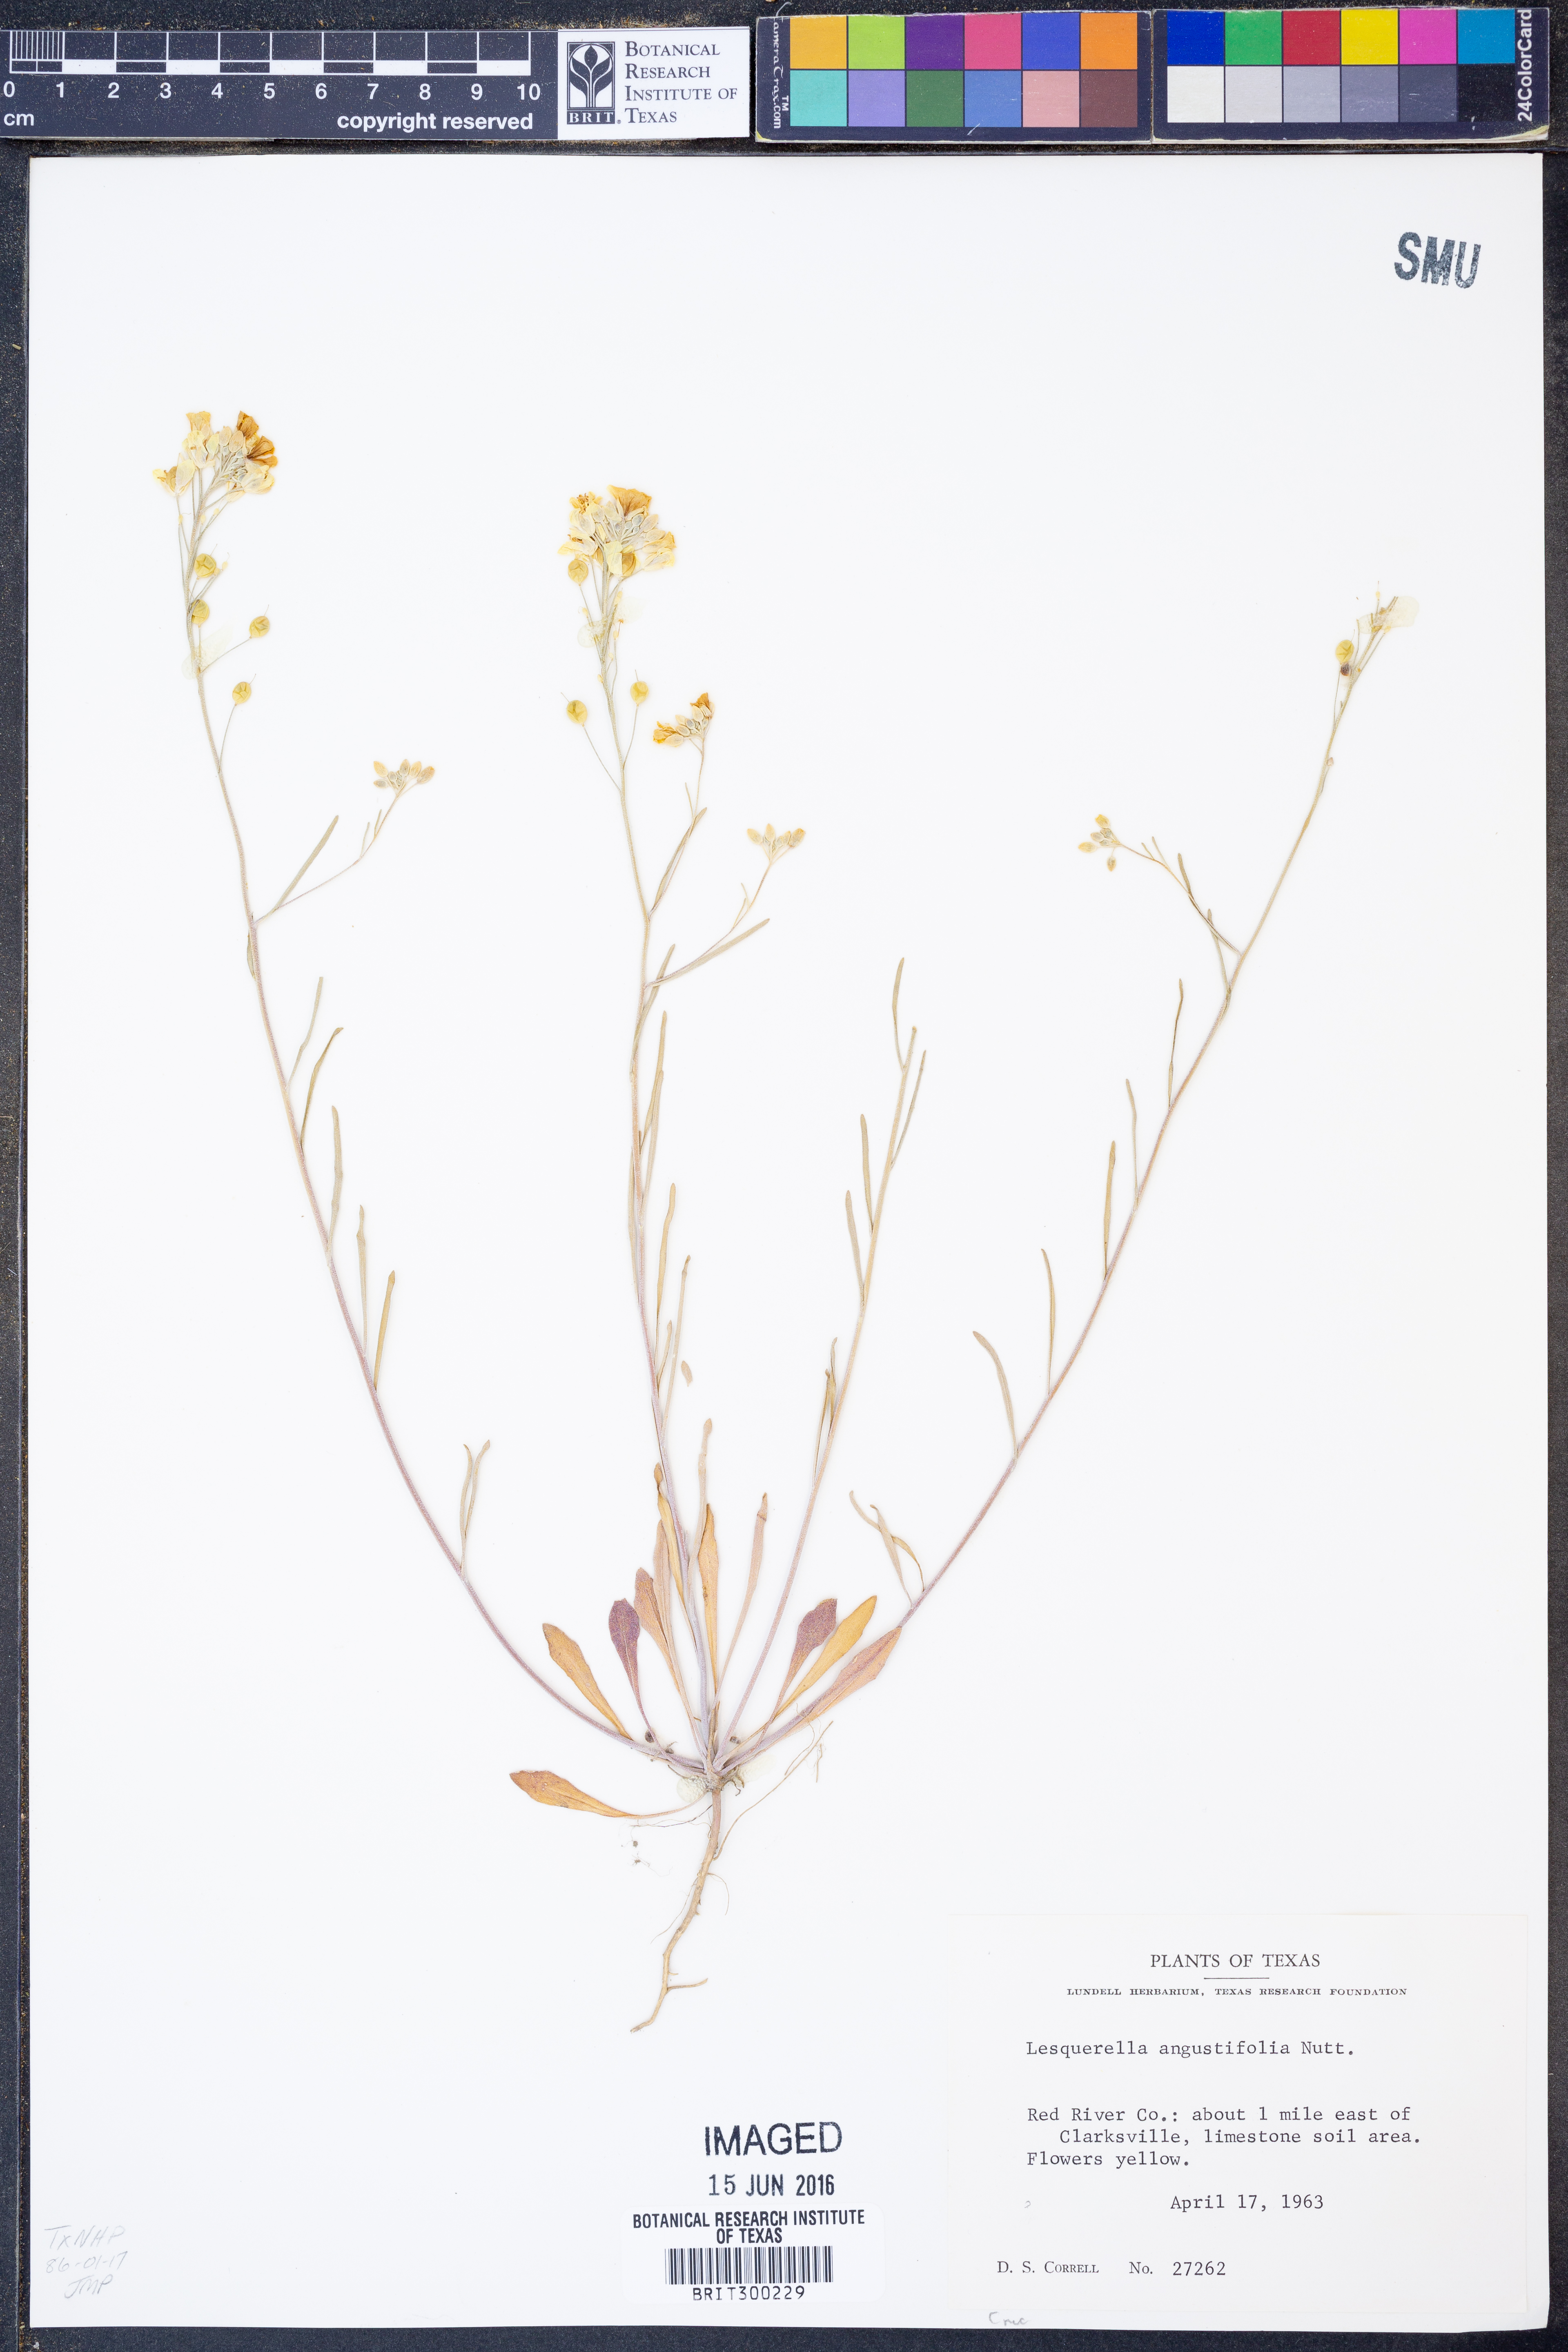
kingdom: Plantae
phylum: Tracheophyta
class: Magnoliopsida
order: Brassicales
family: Brassicaceae
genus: Physaria
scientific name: Physaria angustifolia
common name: Threadleaf bladderpod
